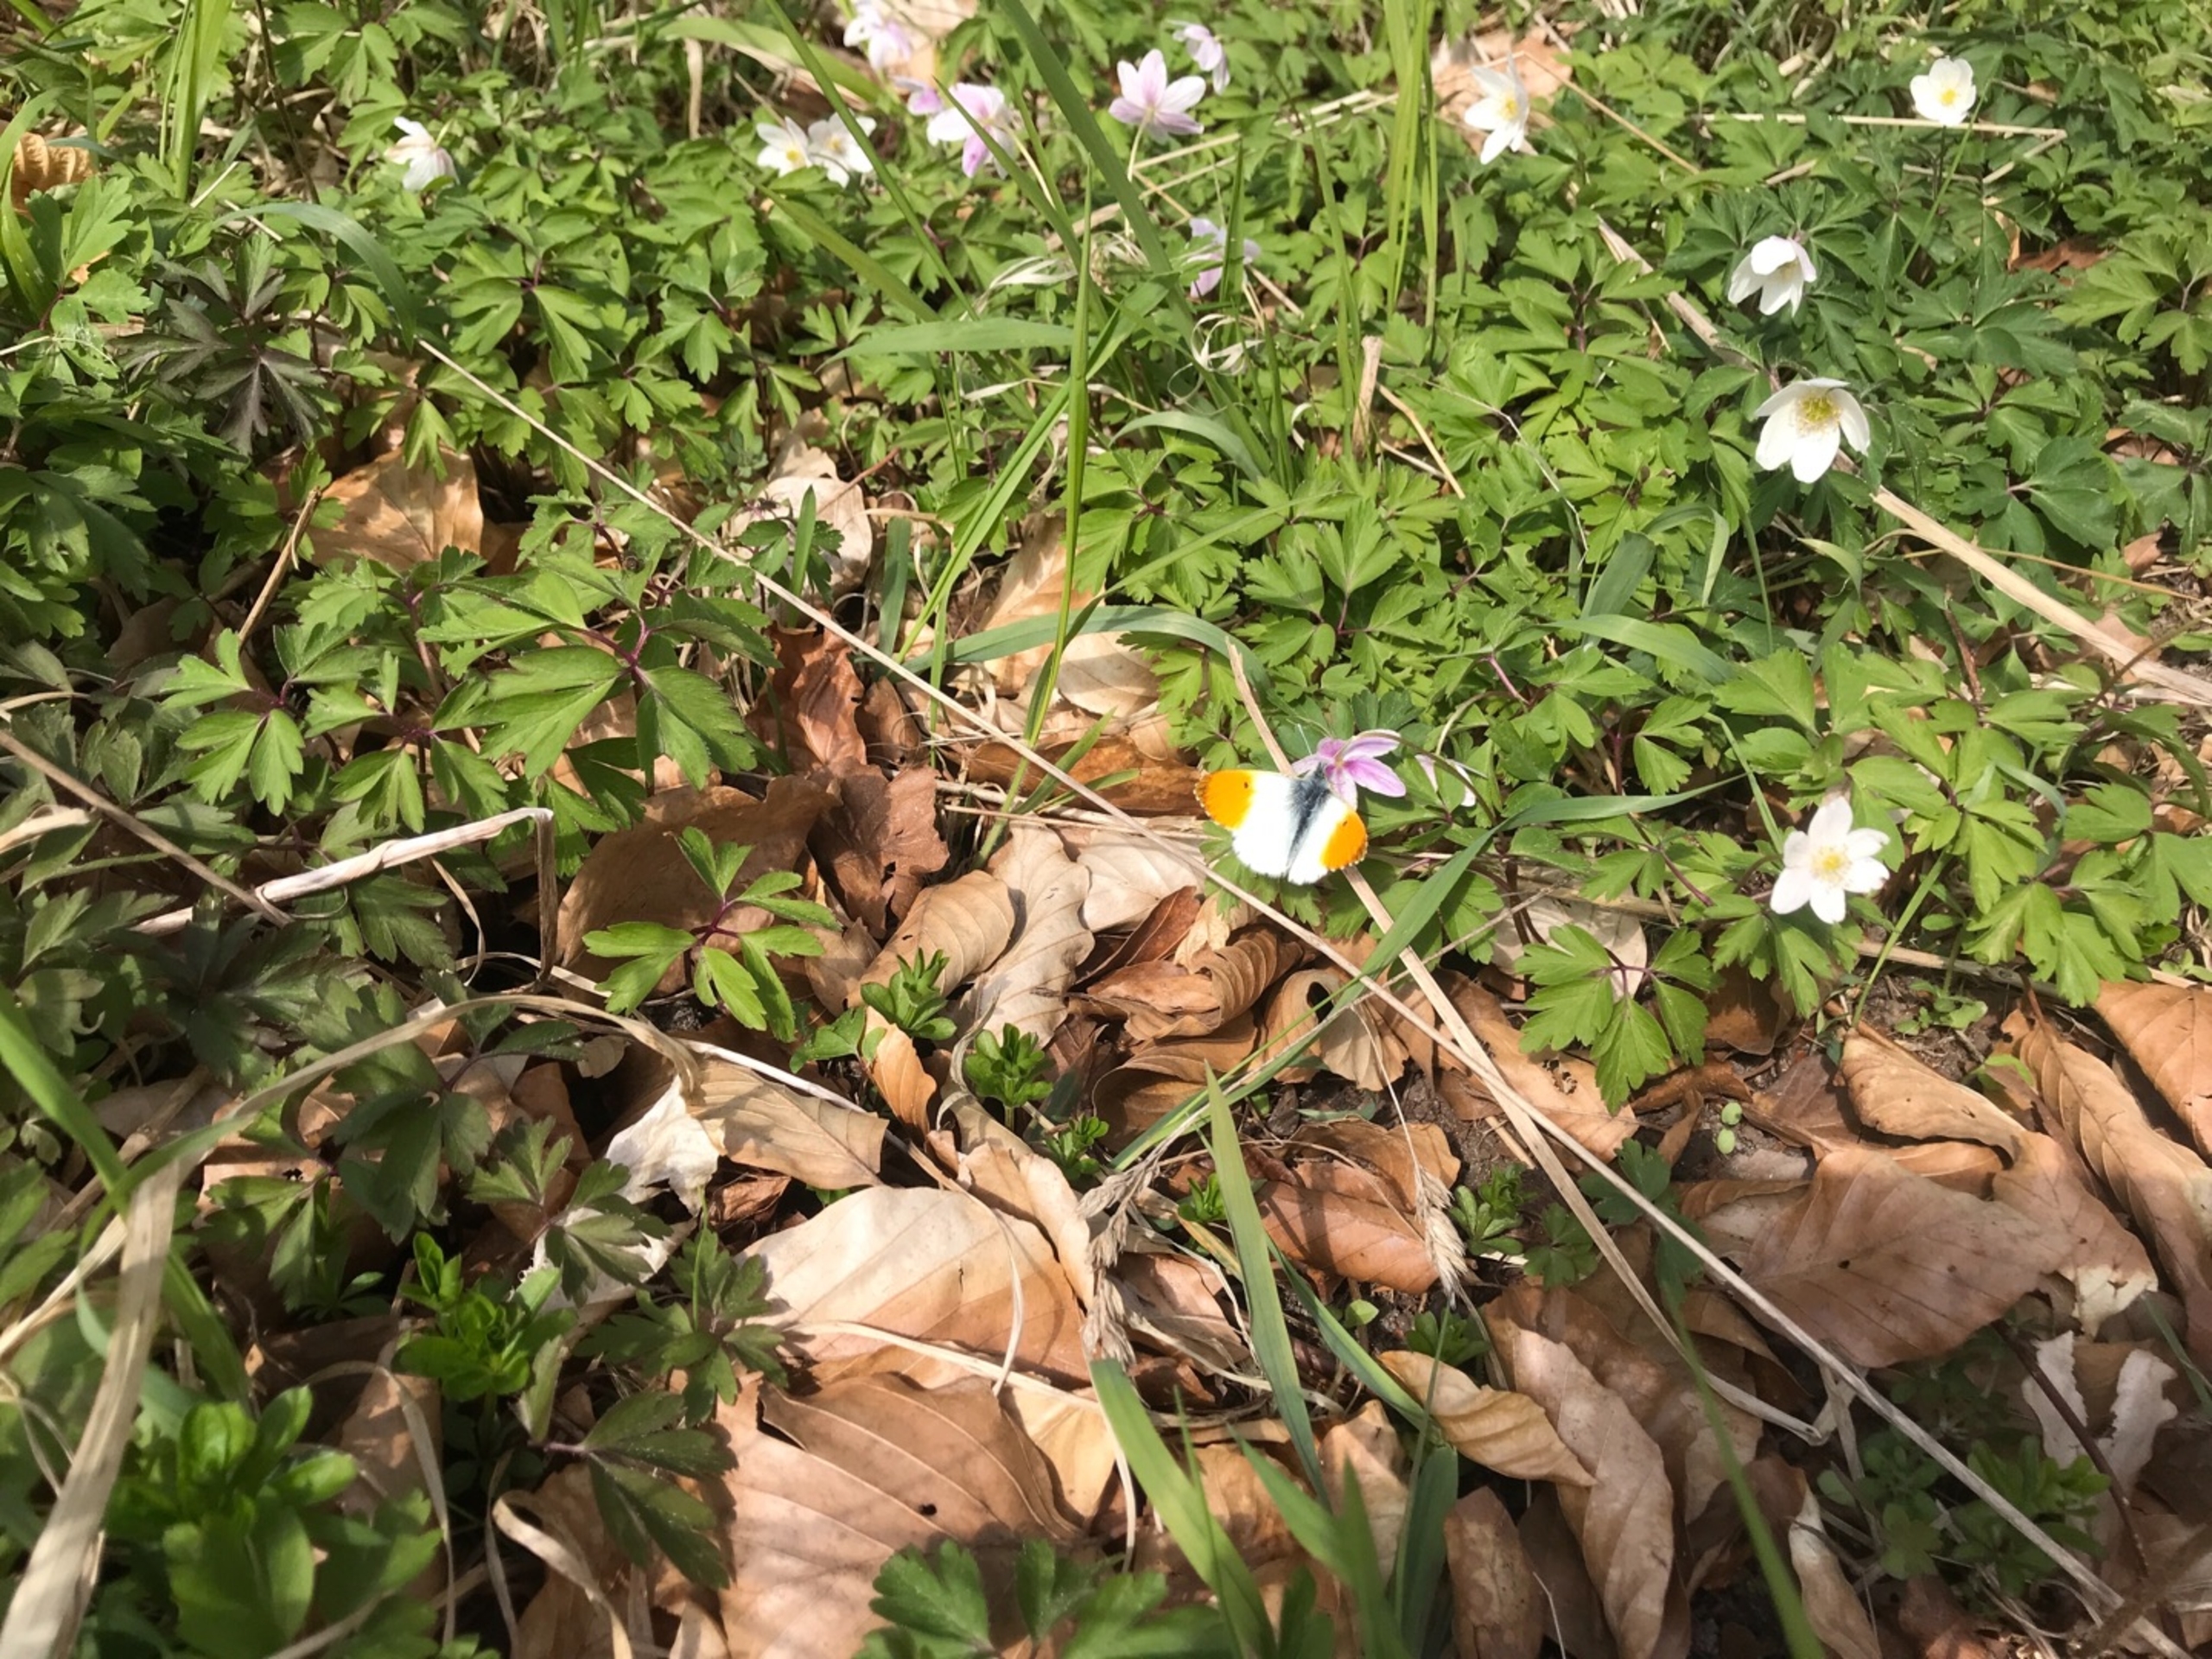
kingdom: Animalia
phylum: Arthropoda
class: Insecta
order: Lepidoptera
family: Pieridae
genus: Anthocharis
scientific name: Anthocharis cardamines
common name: Aurora
